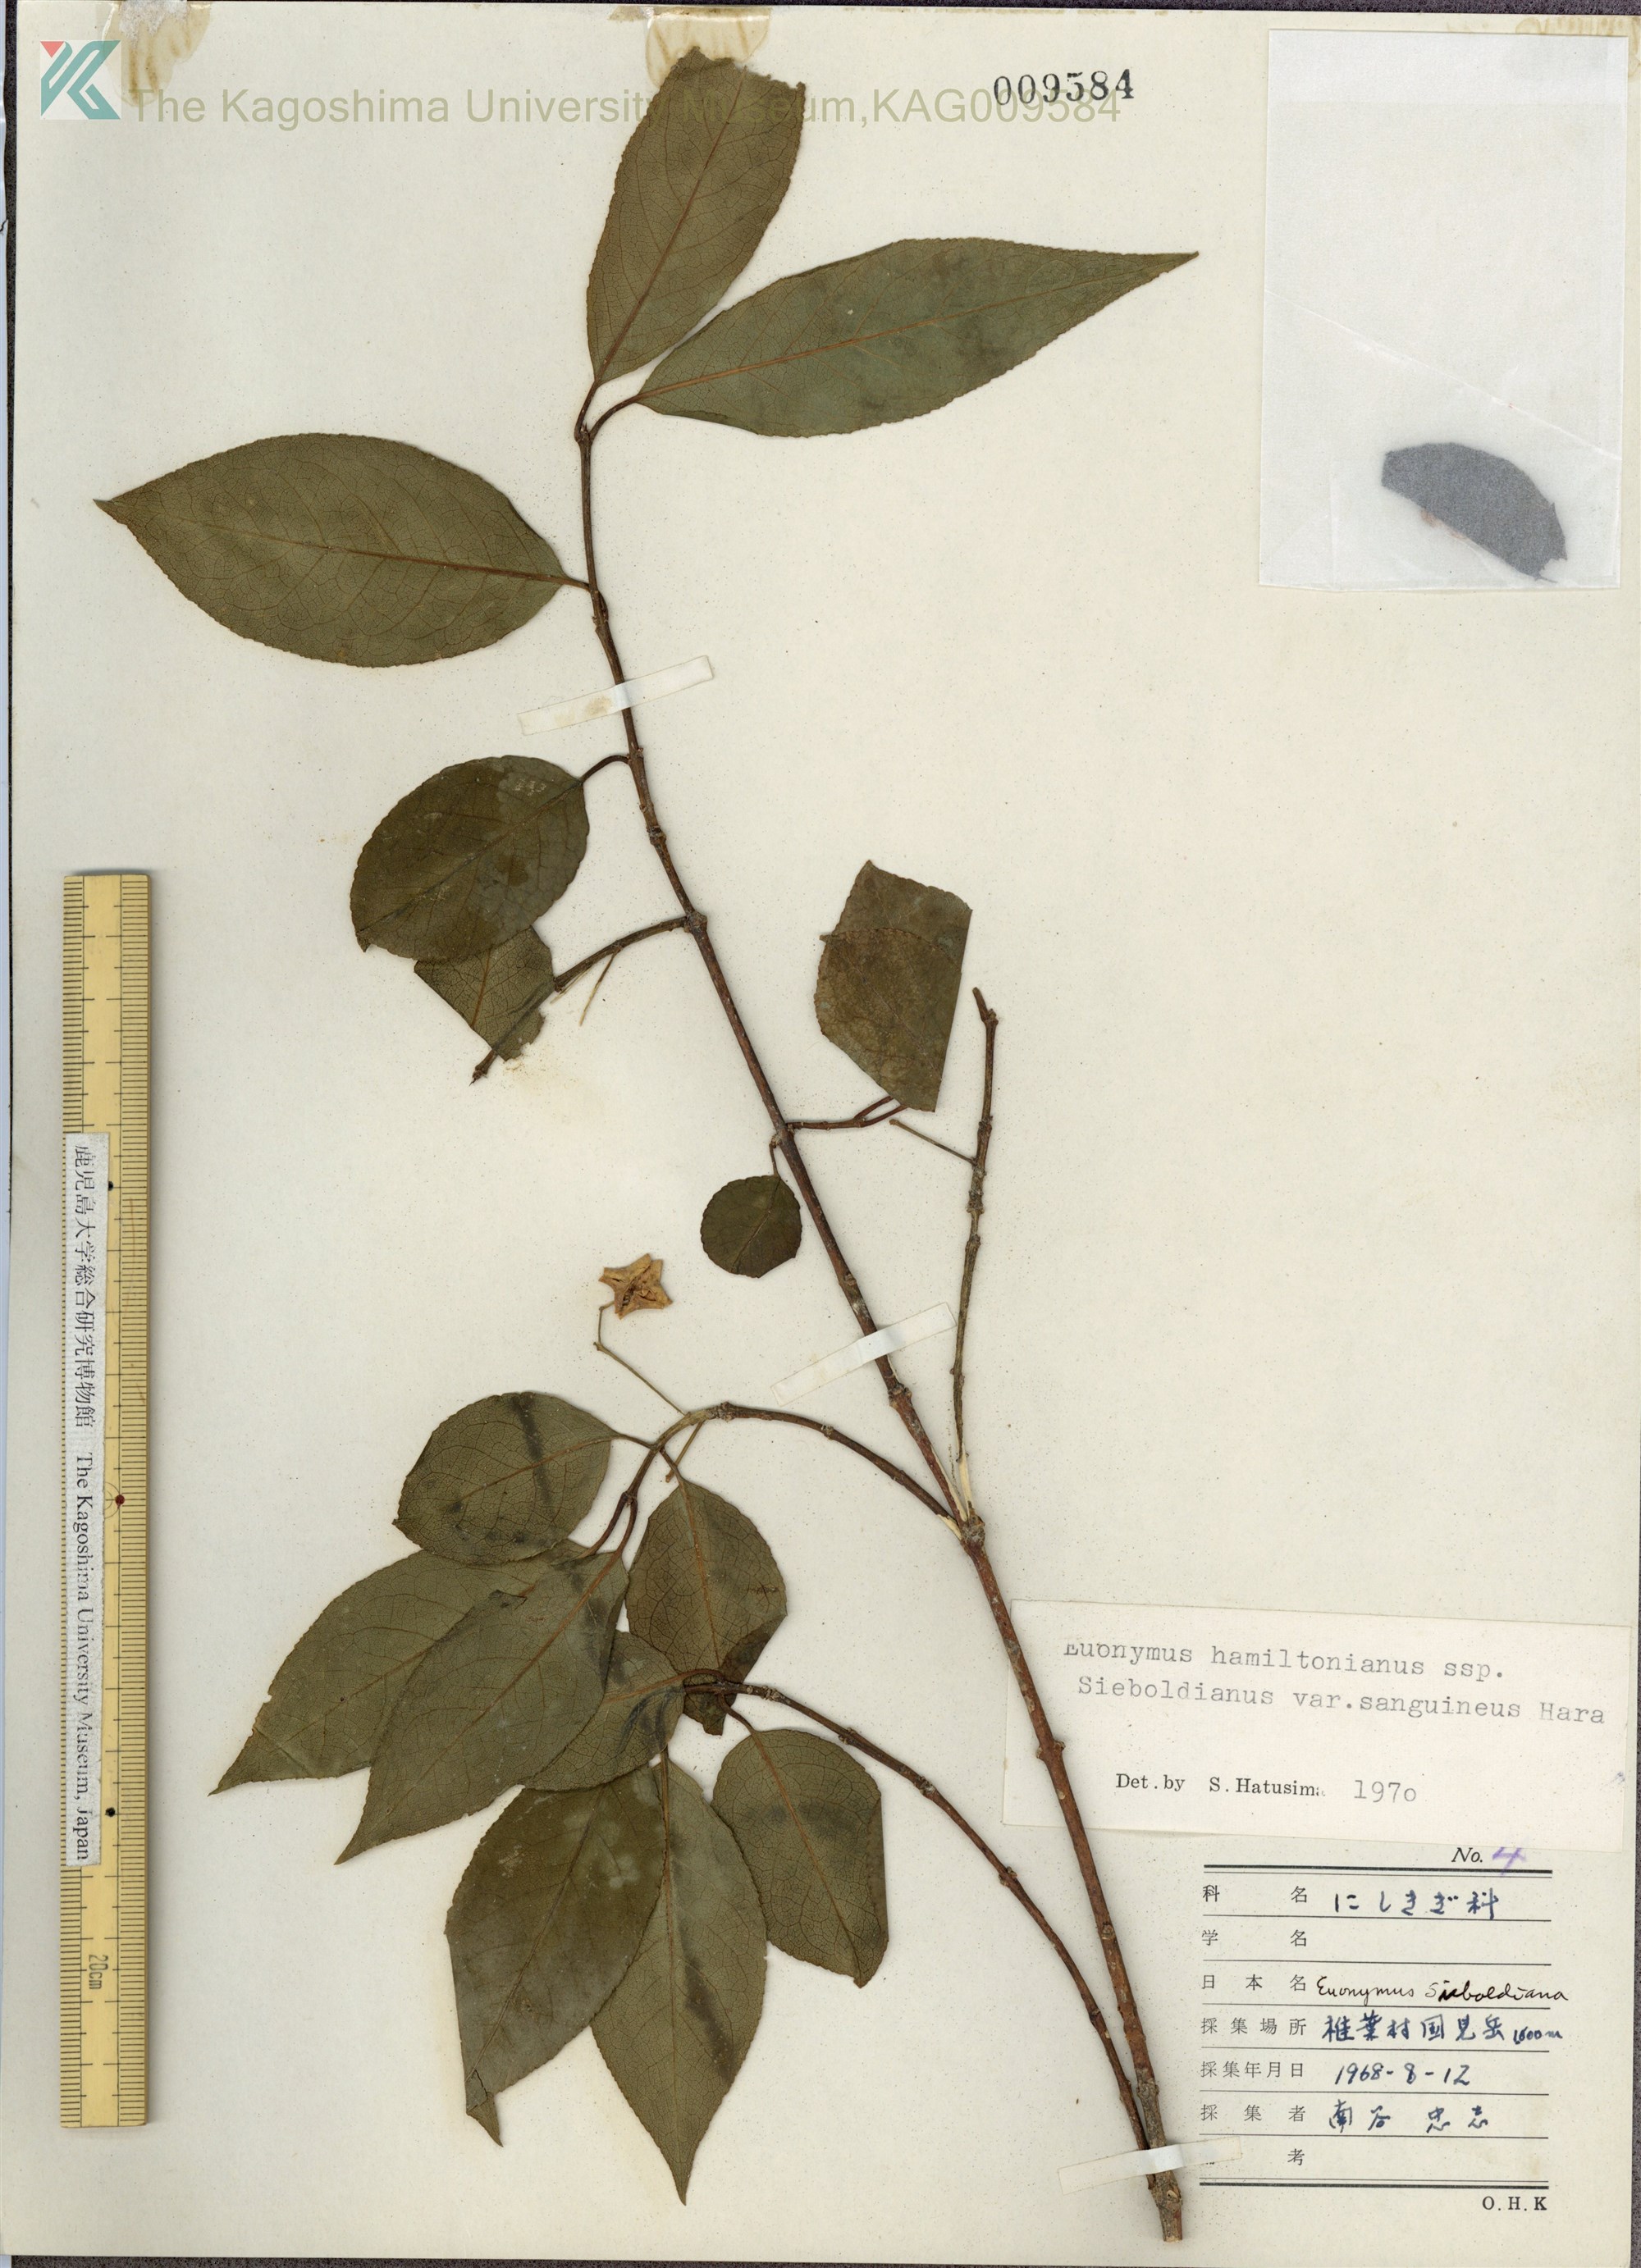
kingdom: Plantae
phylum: Tracheophyta
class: Magnoliopsida
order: Celastrales
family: Celastraceae
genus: Euonymus
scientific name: Euonymus hamiltonianus
